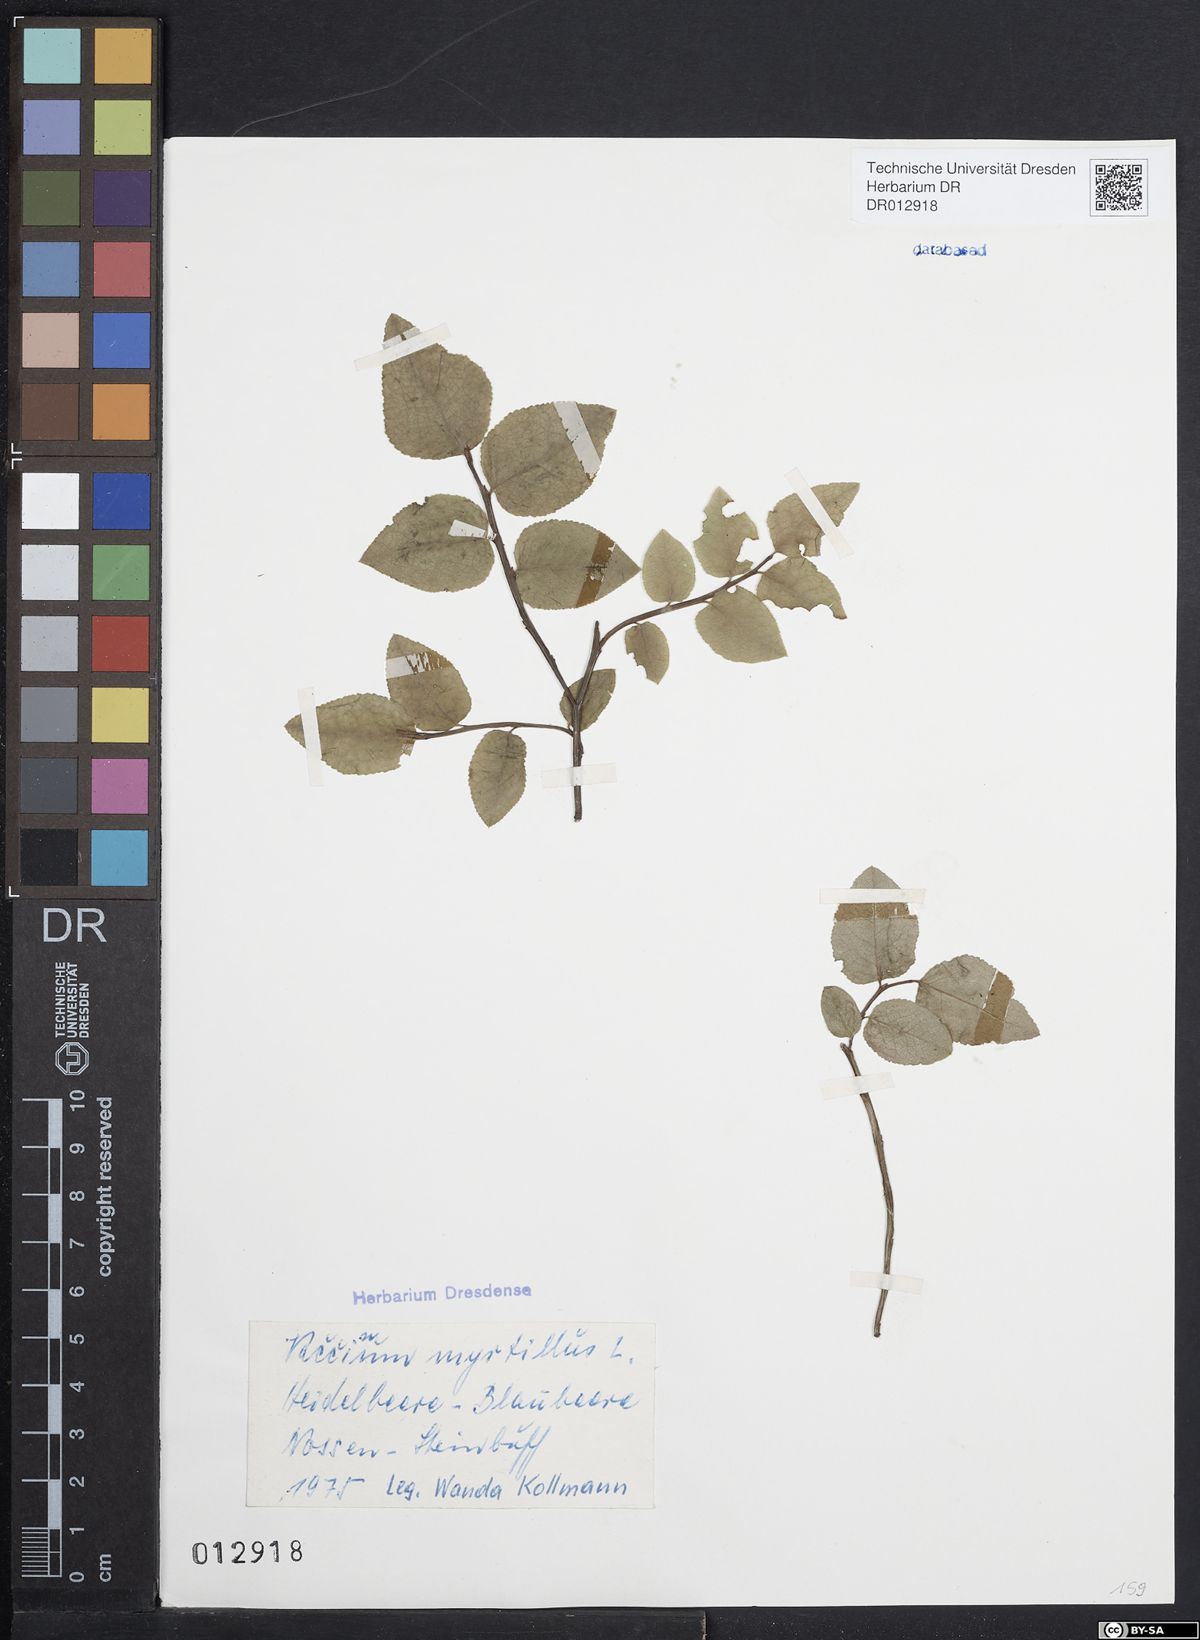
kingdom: Plantae
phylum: Tracheophyta
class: Magnoliopsida
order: Ericales
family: Ericaceae
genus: Vaccinium
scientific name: Vaccinium myrtillus
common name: Bilberry
